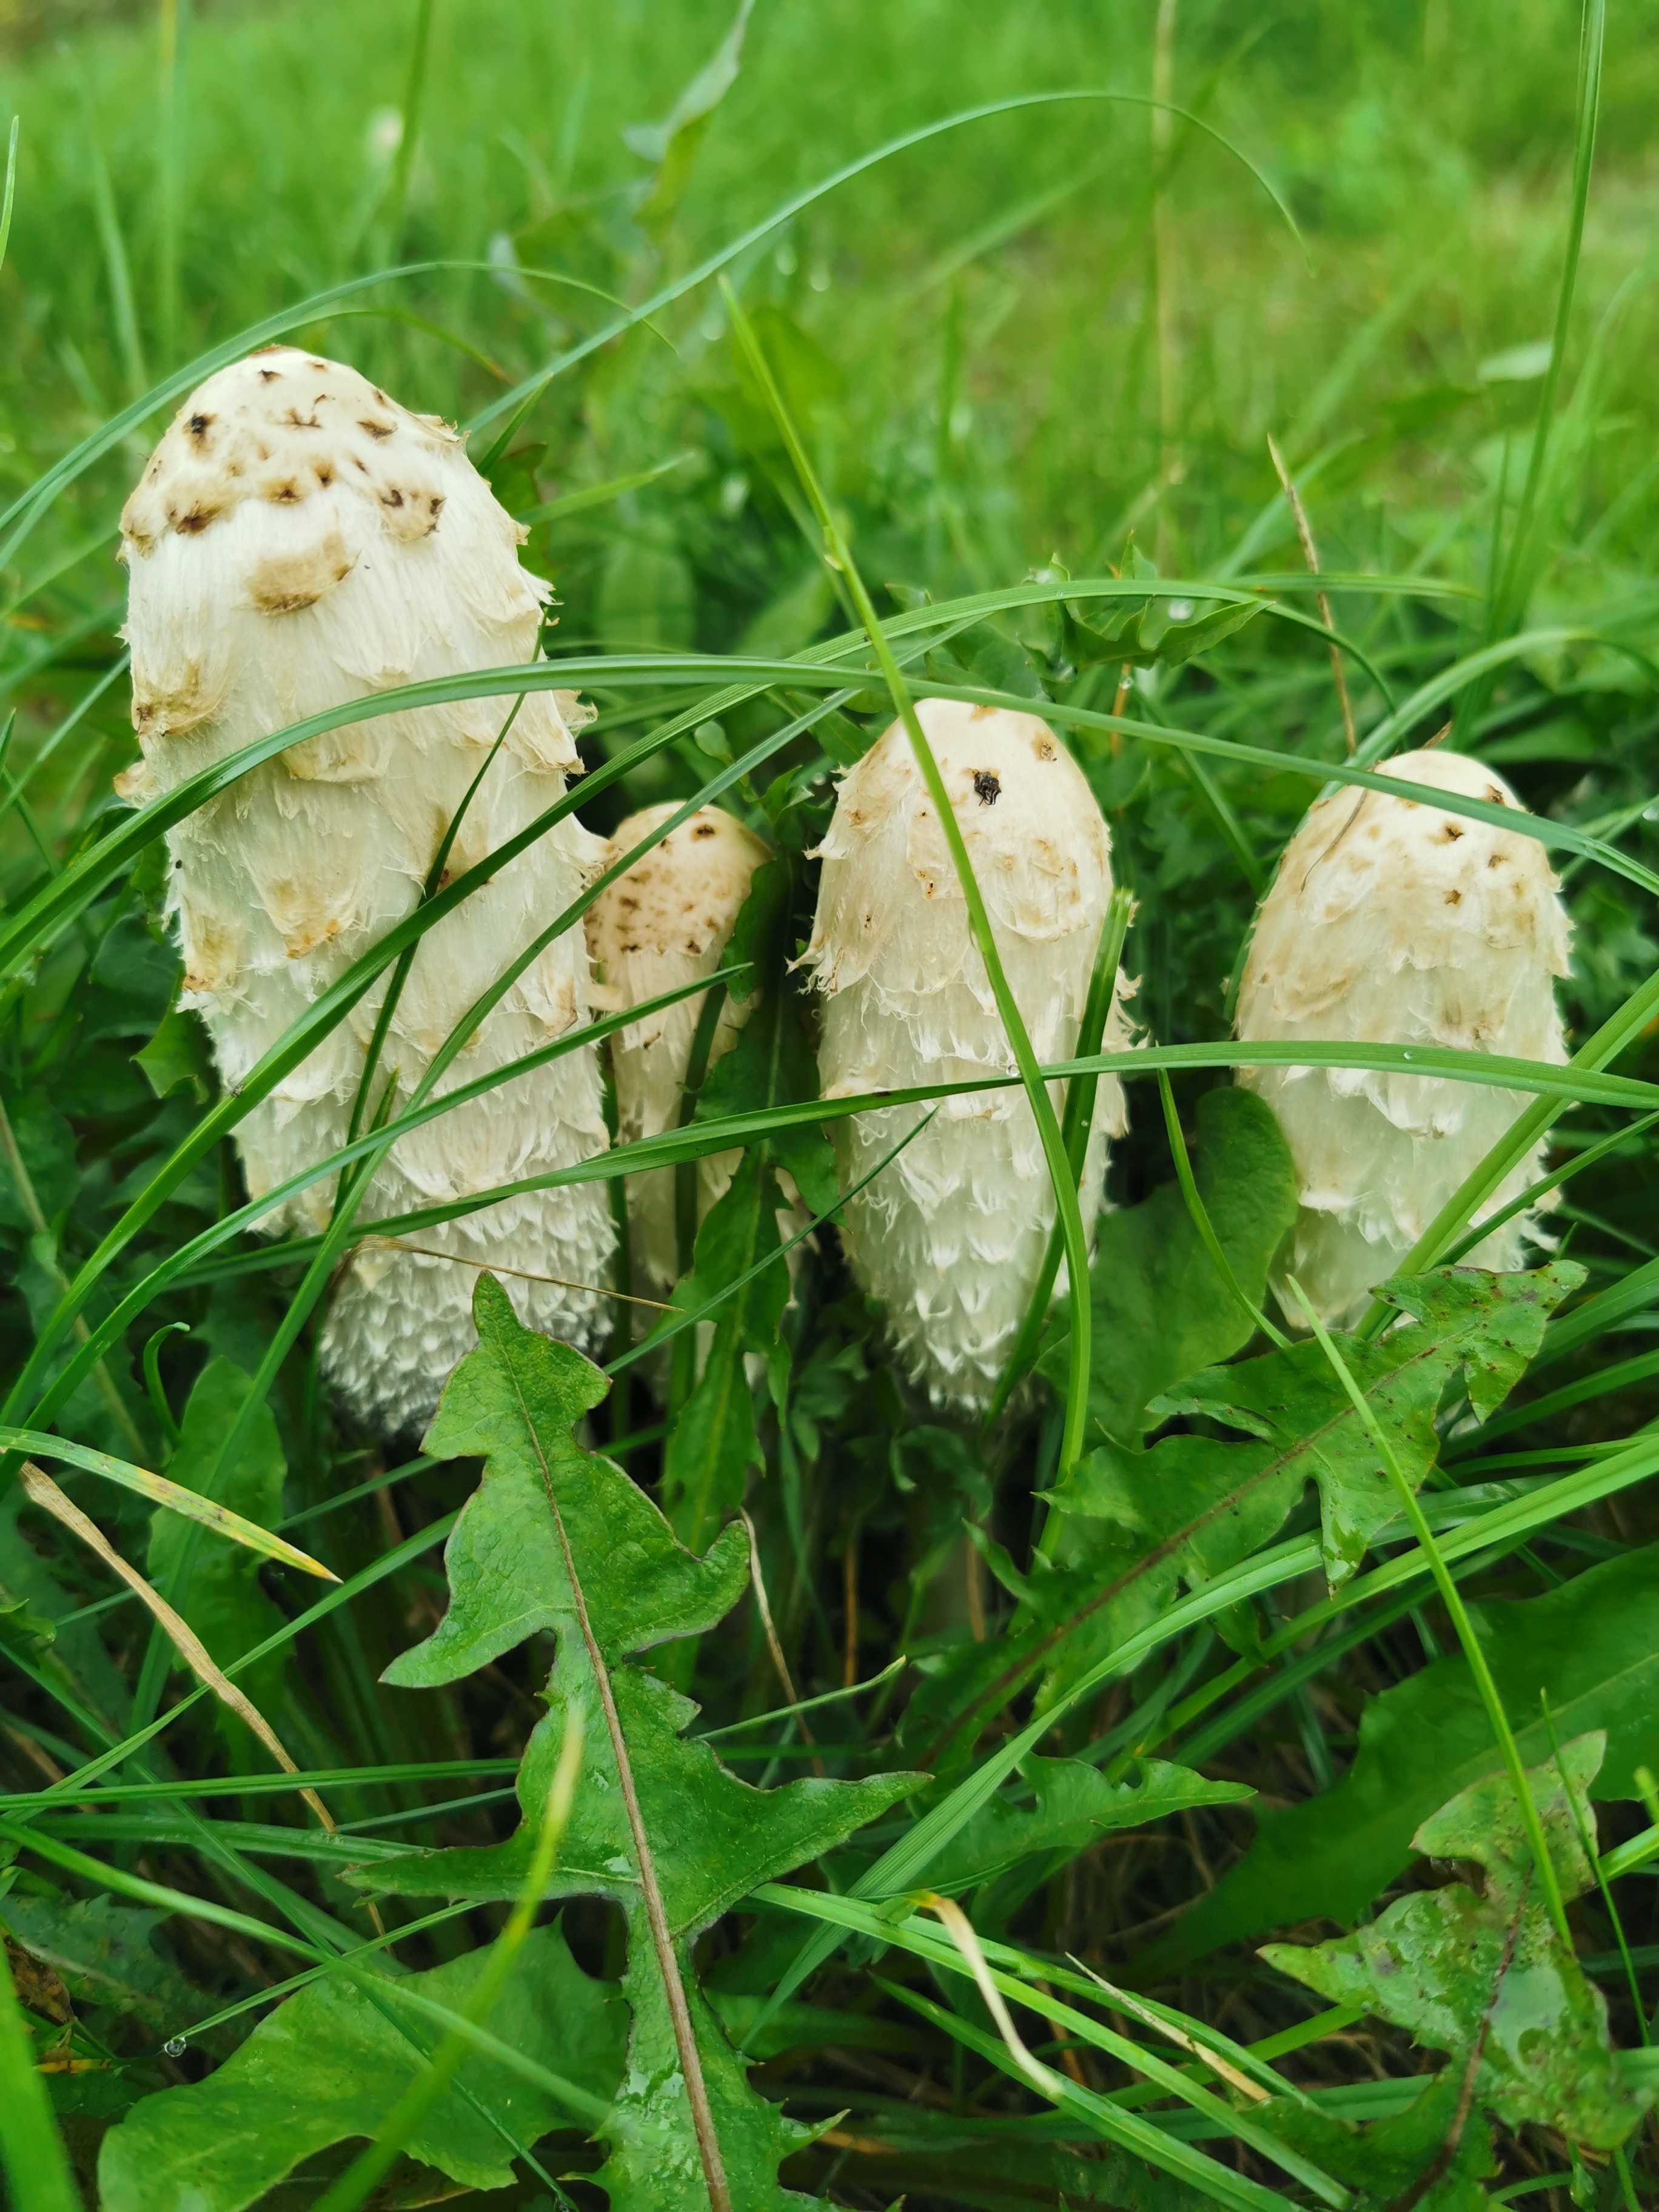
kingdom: Fungi
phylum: Basidiomycota
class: Agaricomycetes
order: Agaricales
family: Agaricaceae
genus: Coprinus
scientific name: Coprinus comatus
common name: stor parykhat
